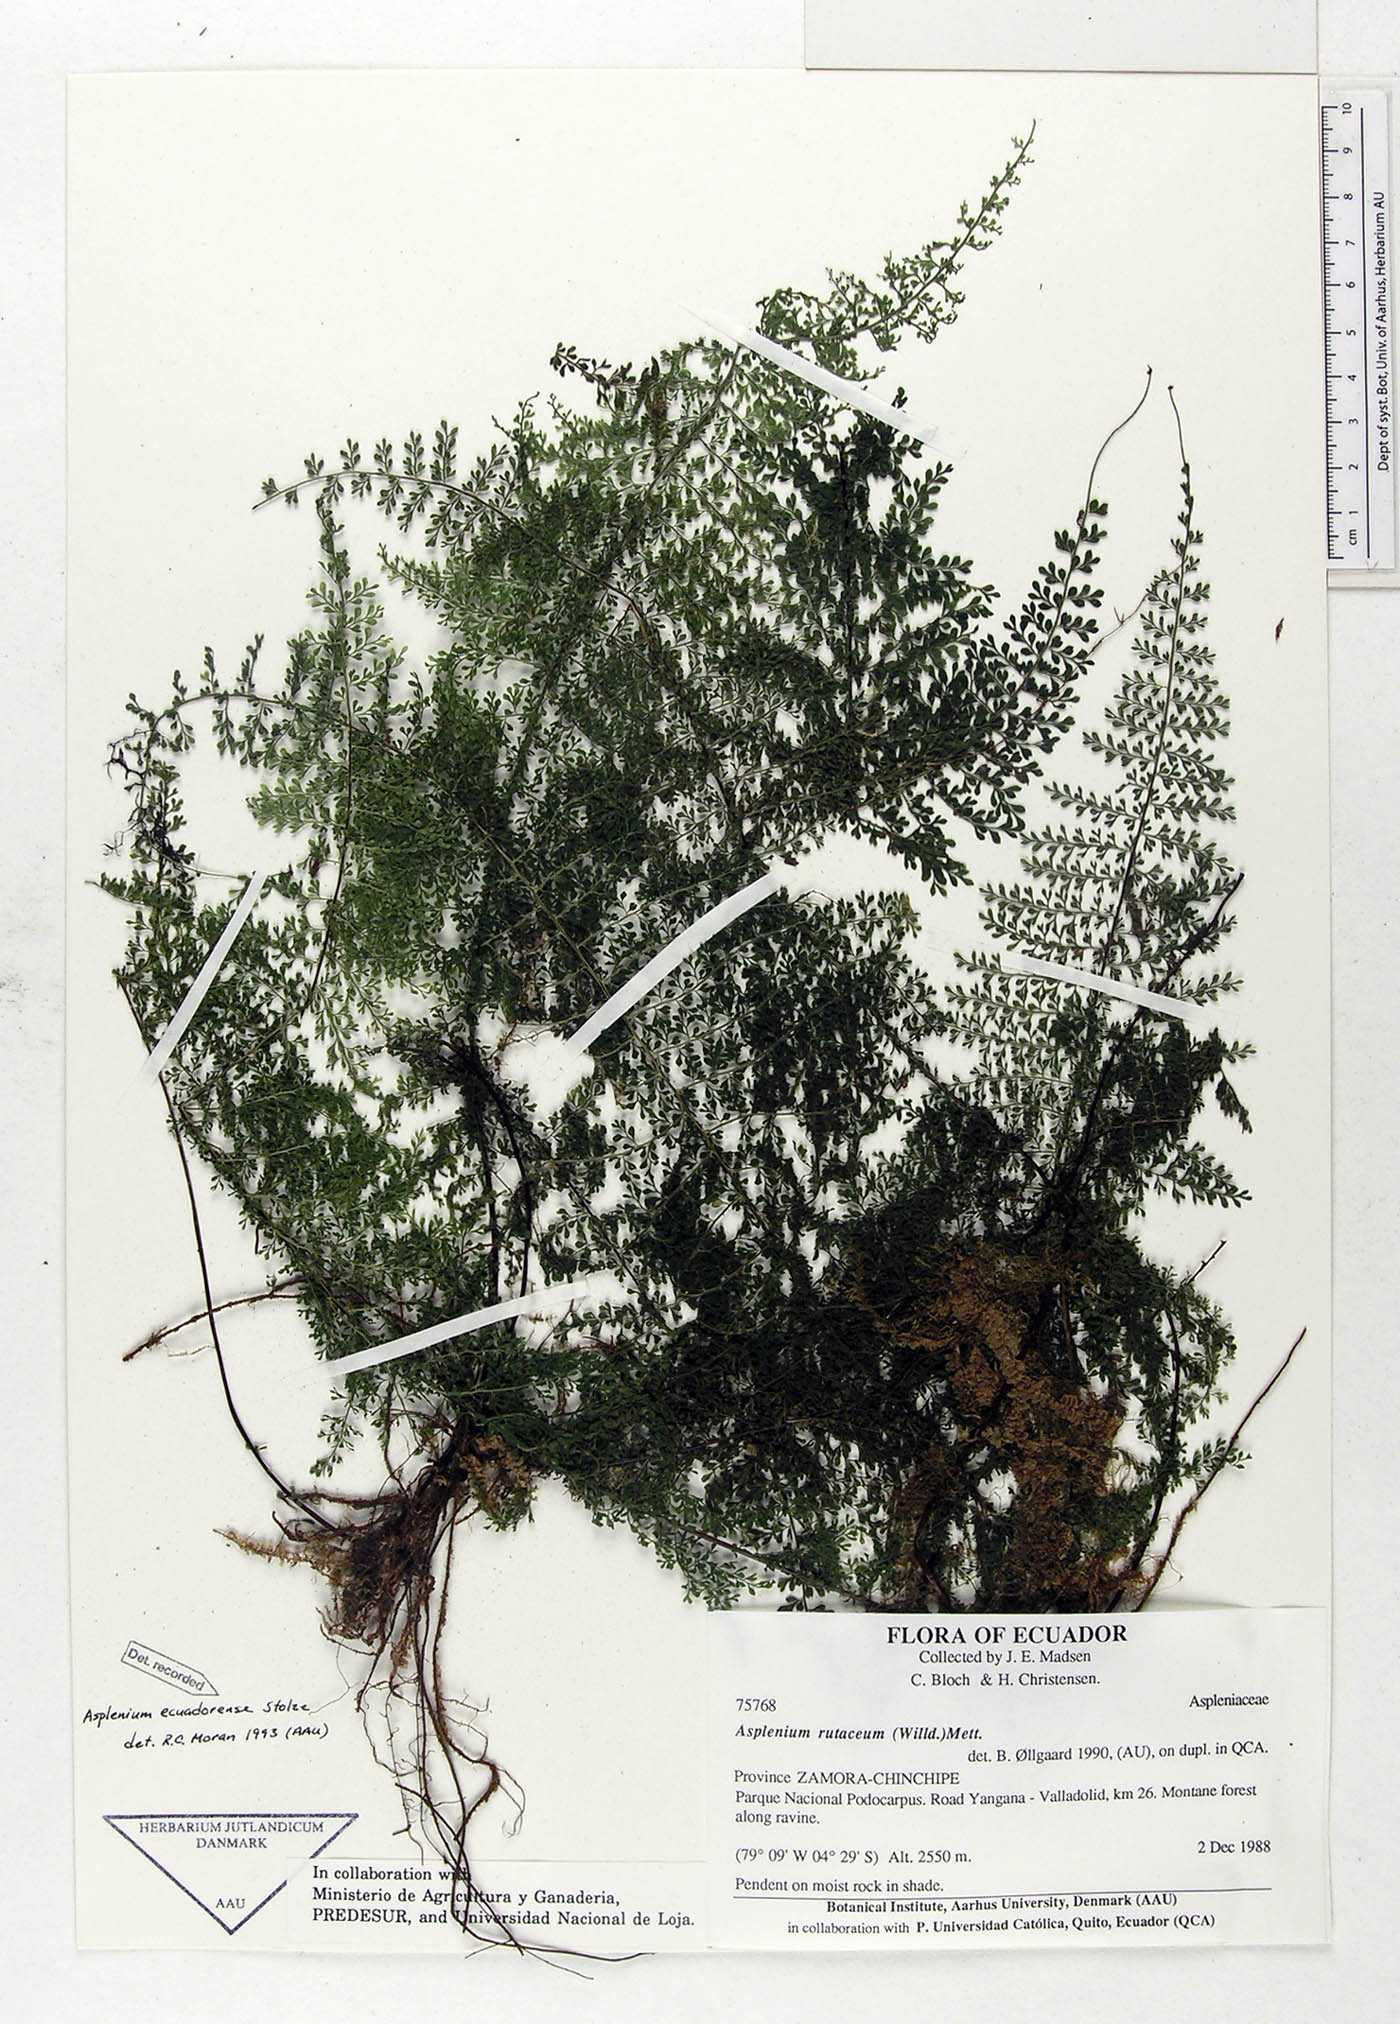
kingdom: Plantae
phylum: Tracheophyta
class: Polypodiopsida
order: Polypodiales
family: Aspleniaceae
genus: Asplenium
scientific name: Asplenium ecuadorense
